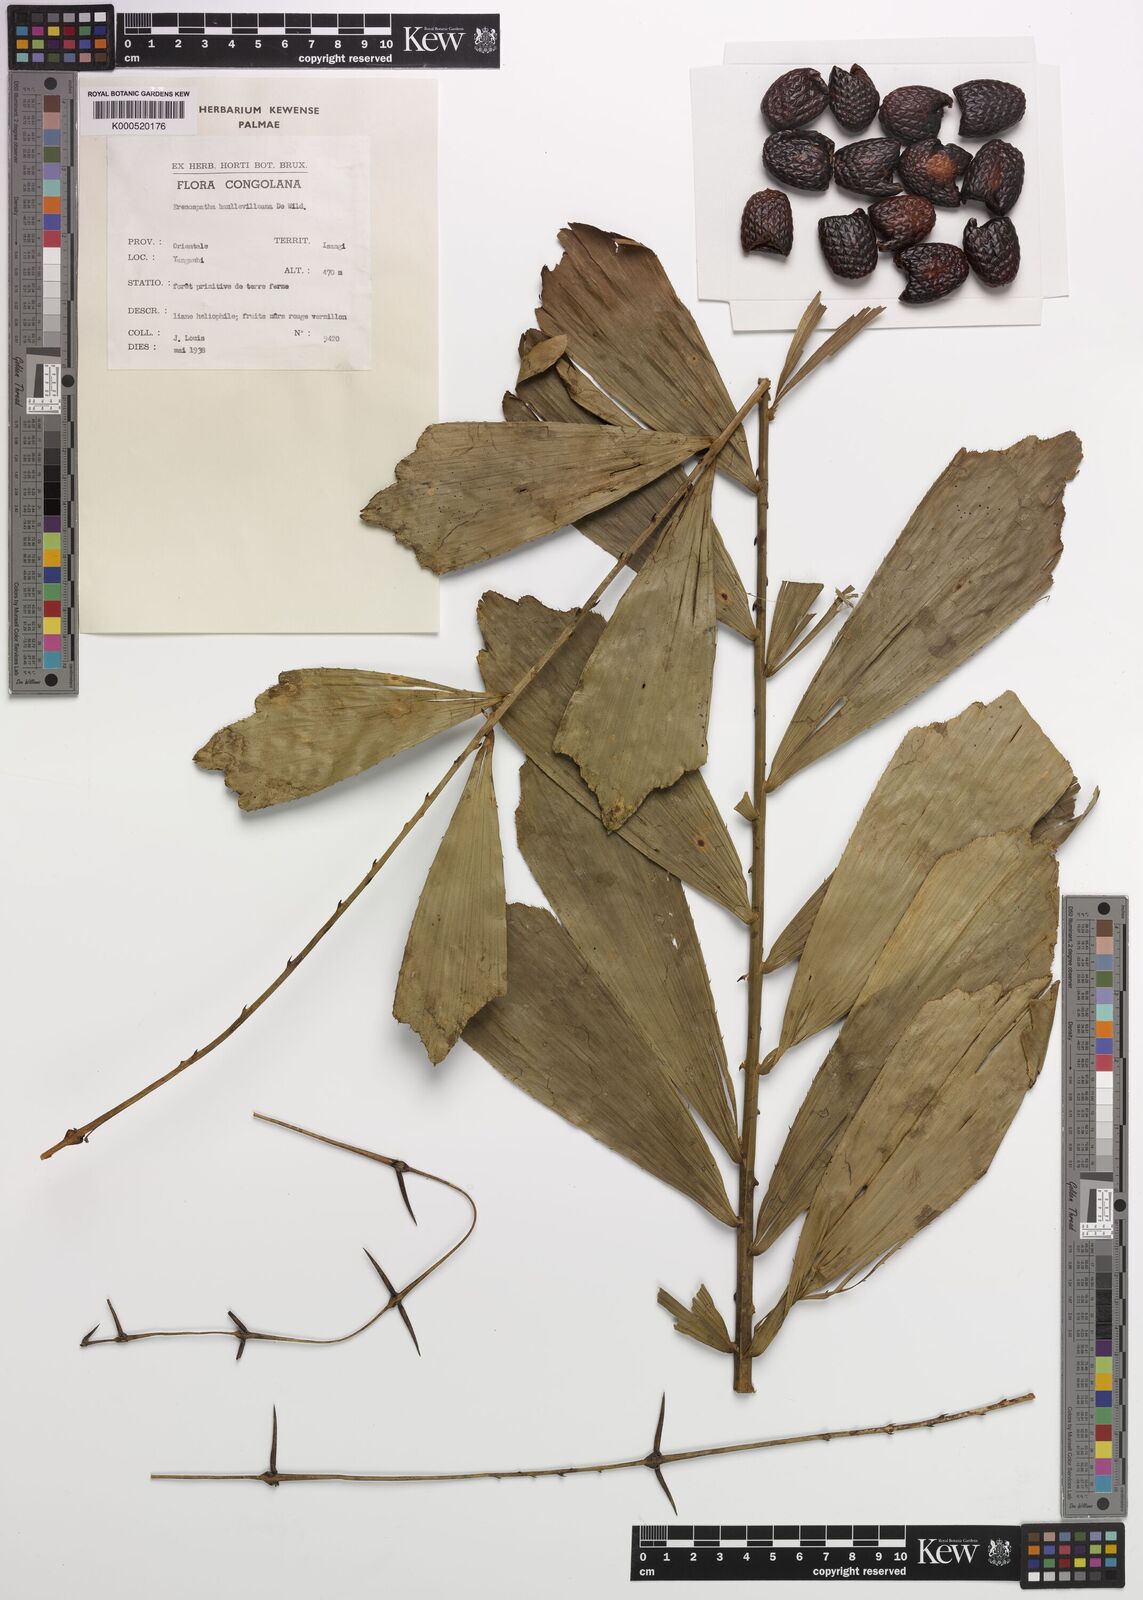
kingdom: Plantae
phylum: Tracheophyta
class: Liliopsida
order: Arecales
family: Arecaceae
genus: Eremospatha
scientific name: Eremospatha haullevilleana
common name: Rattan
